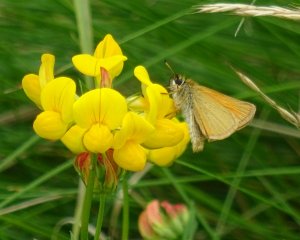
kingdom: Animalia
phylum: Arthropoda
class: Insecta
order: Lepidoptera
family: Hesperiidae
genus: Thymelicus
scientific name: Thymelicus lineola
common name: European Skipper
